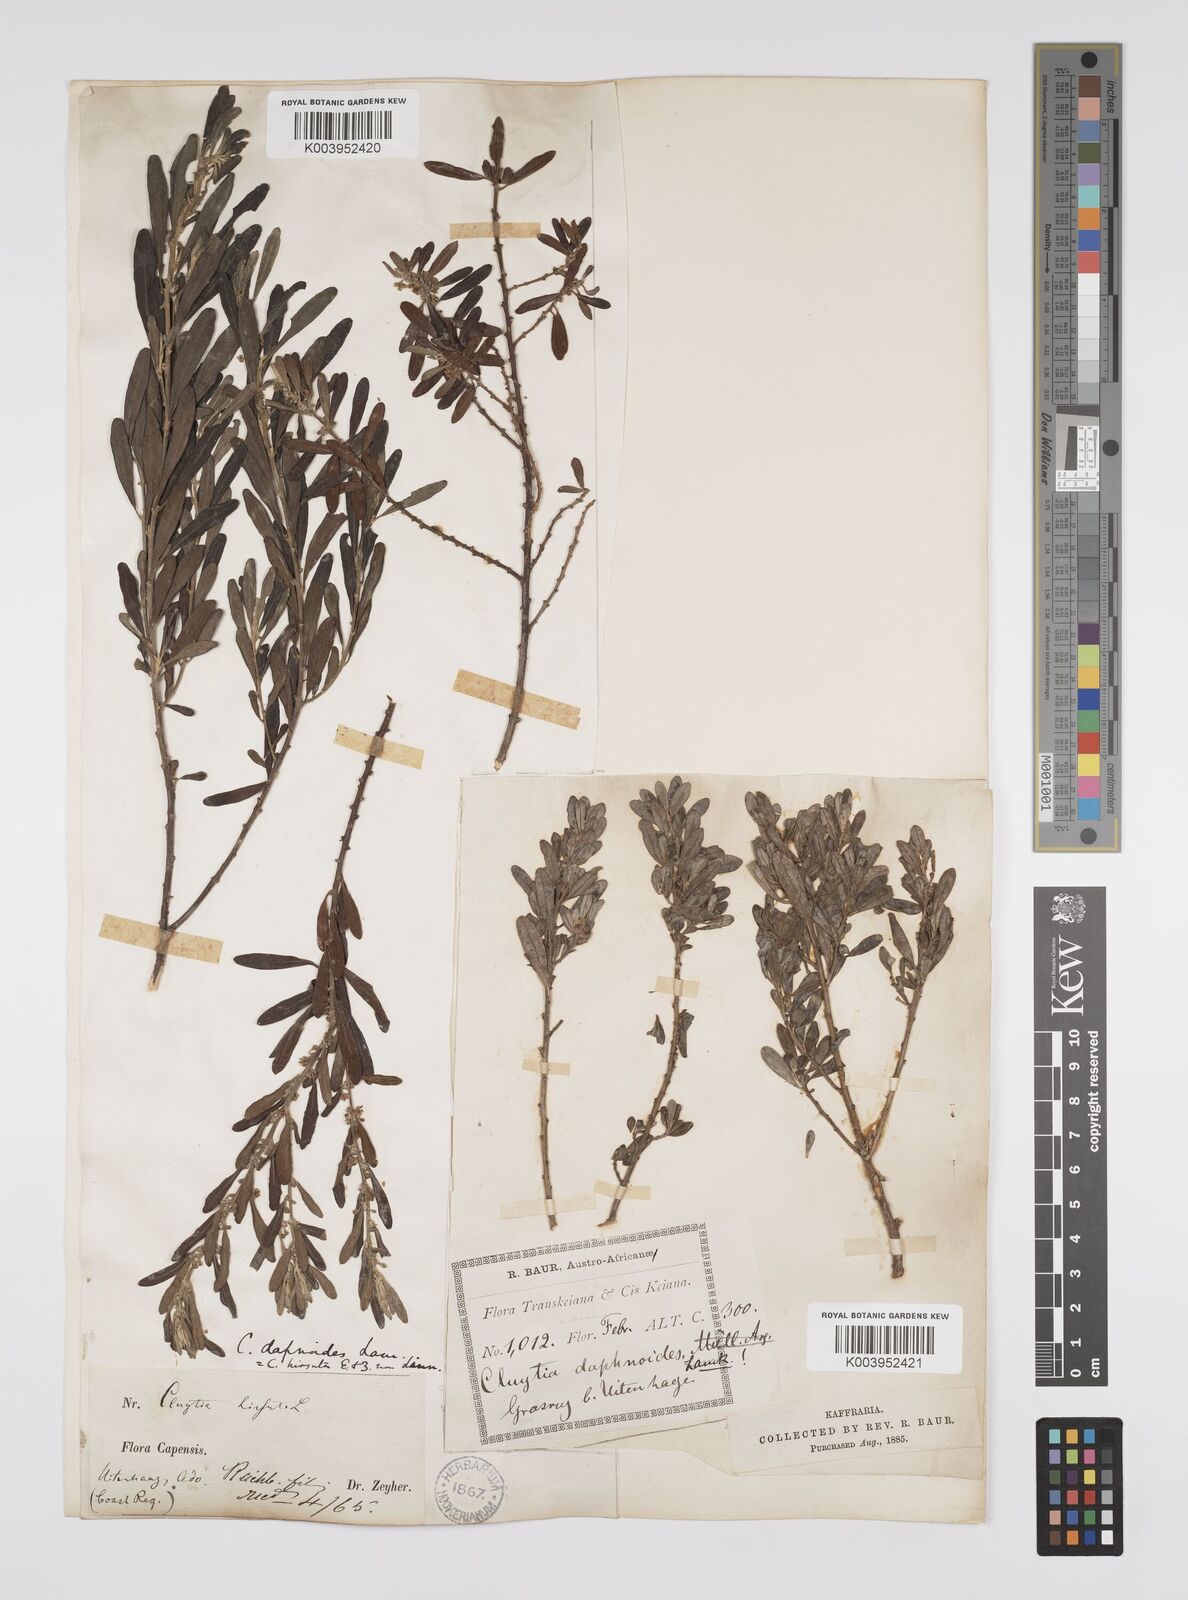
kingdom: Plantae
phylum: Tracheophyta
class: Magnoliopsida
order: Malpighiales
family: Peraceae
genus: Clutia
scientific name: Clutia daphnoides
